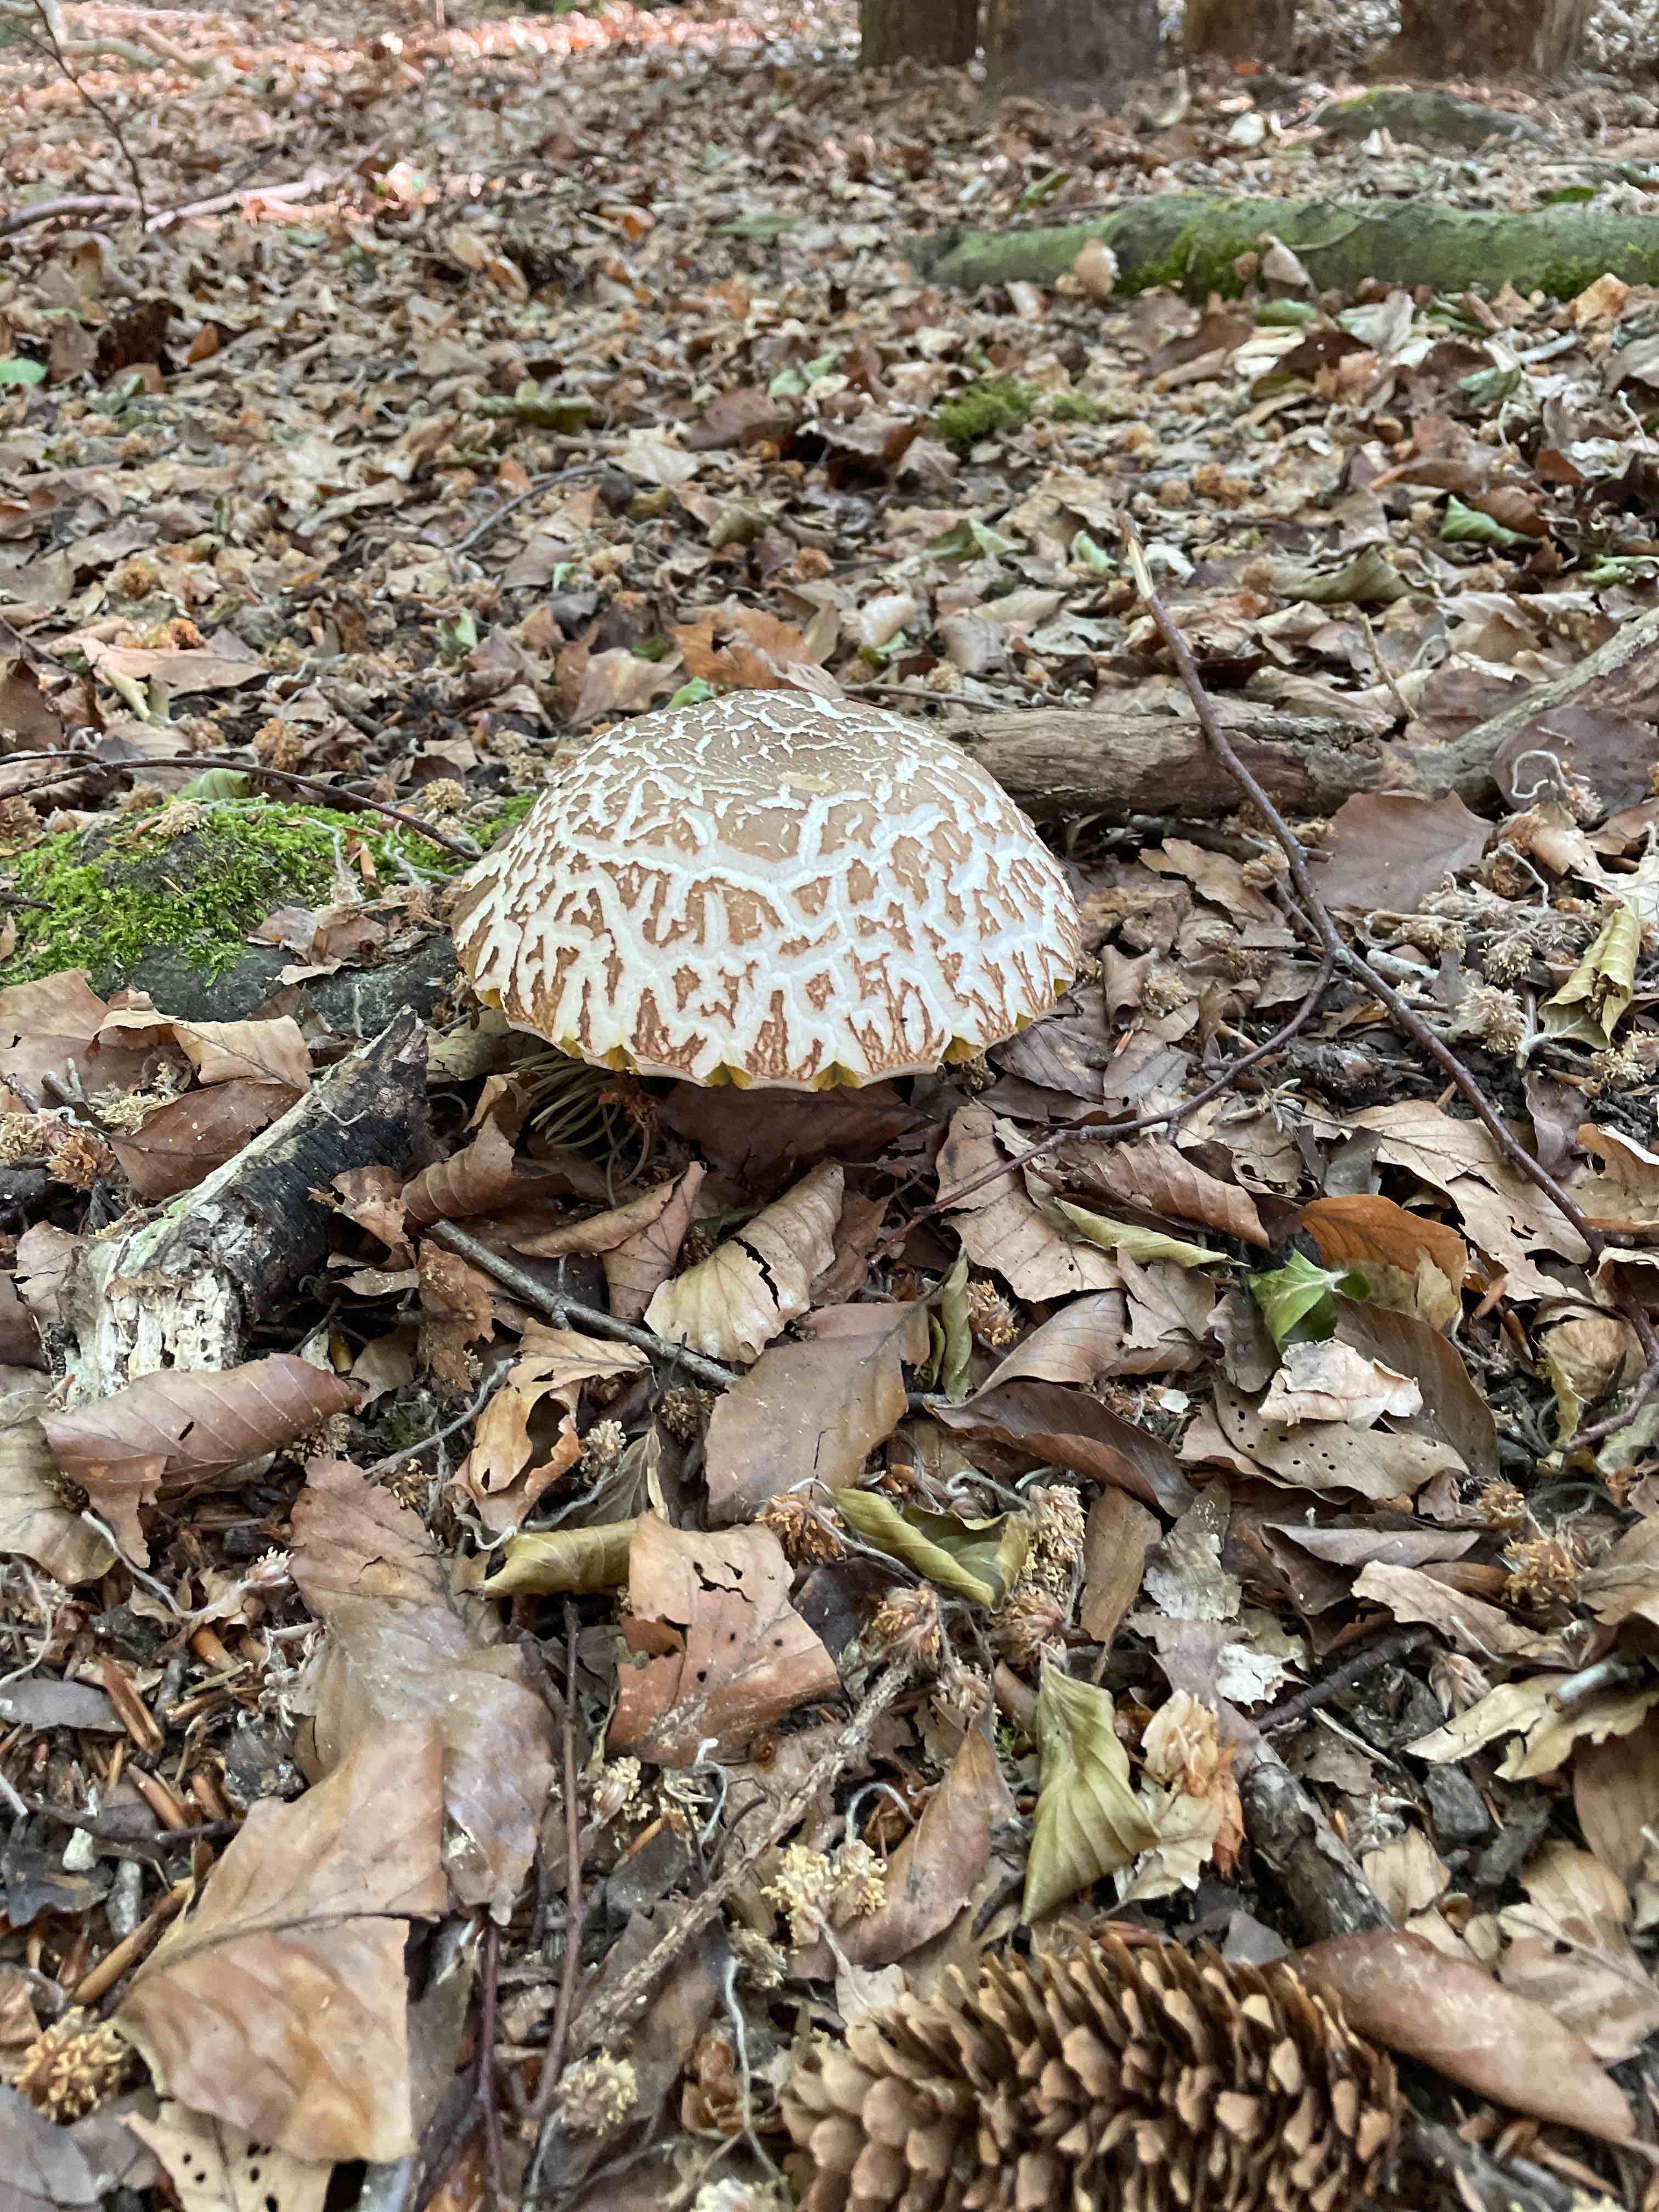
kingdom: Fungi
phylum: Basidiomycota
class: Agaricomycetes
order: Boletales
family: Boletaceae
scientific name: Boletaceae
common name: rørhatfamilien
